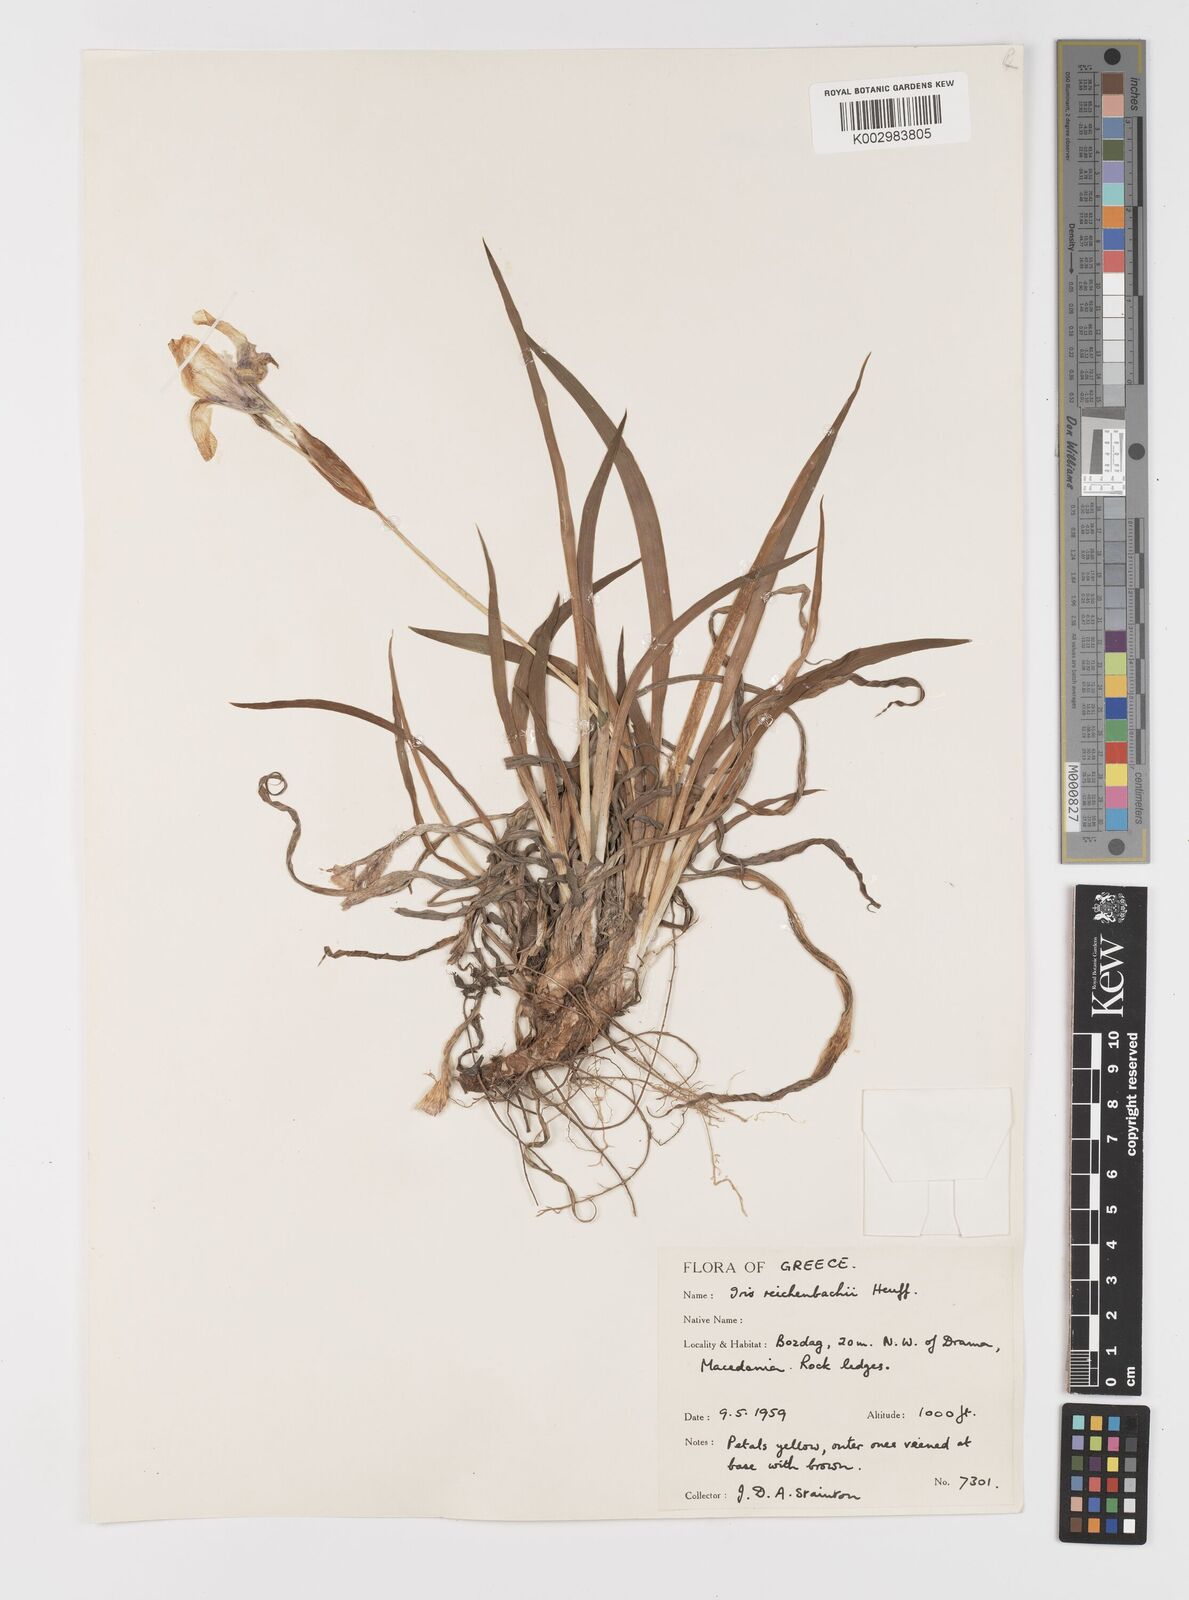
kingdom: Plantae
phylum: Tracheophyta
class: Liliopsida
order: Asparagales
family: Iridaceae
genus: Iris
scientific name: Iris reichenbachii
